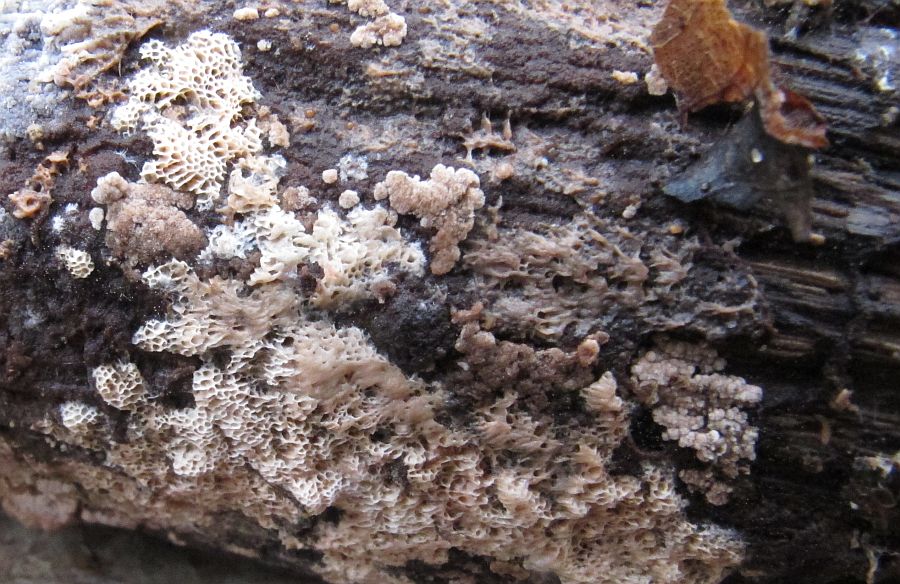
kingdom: Fungi
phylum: Basidiomycota
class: Agaricomycetes
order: Polyporales
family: Irpicaceae
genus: Ceriporia
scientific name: Ceriporia viridans
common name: foranderlig voksporesvamp
